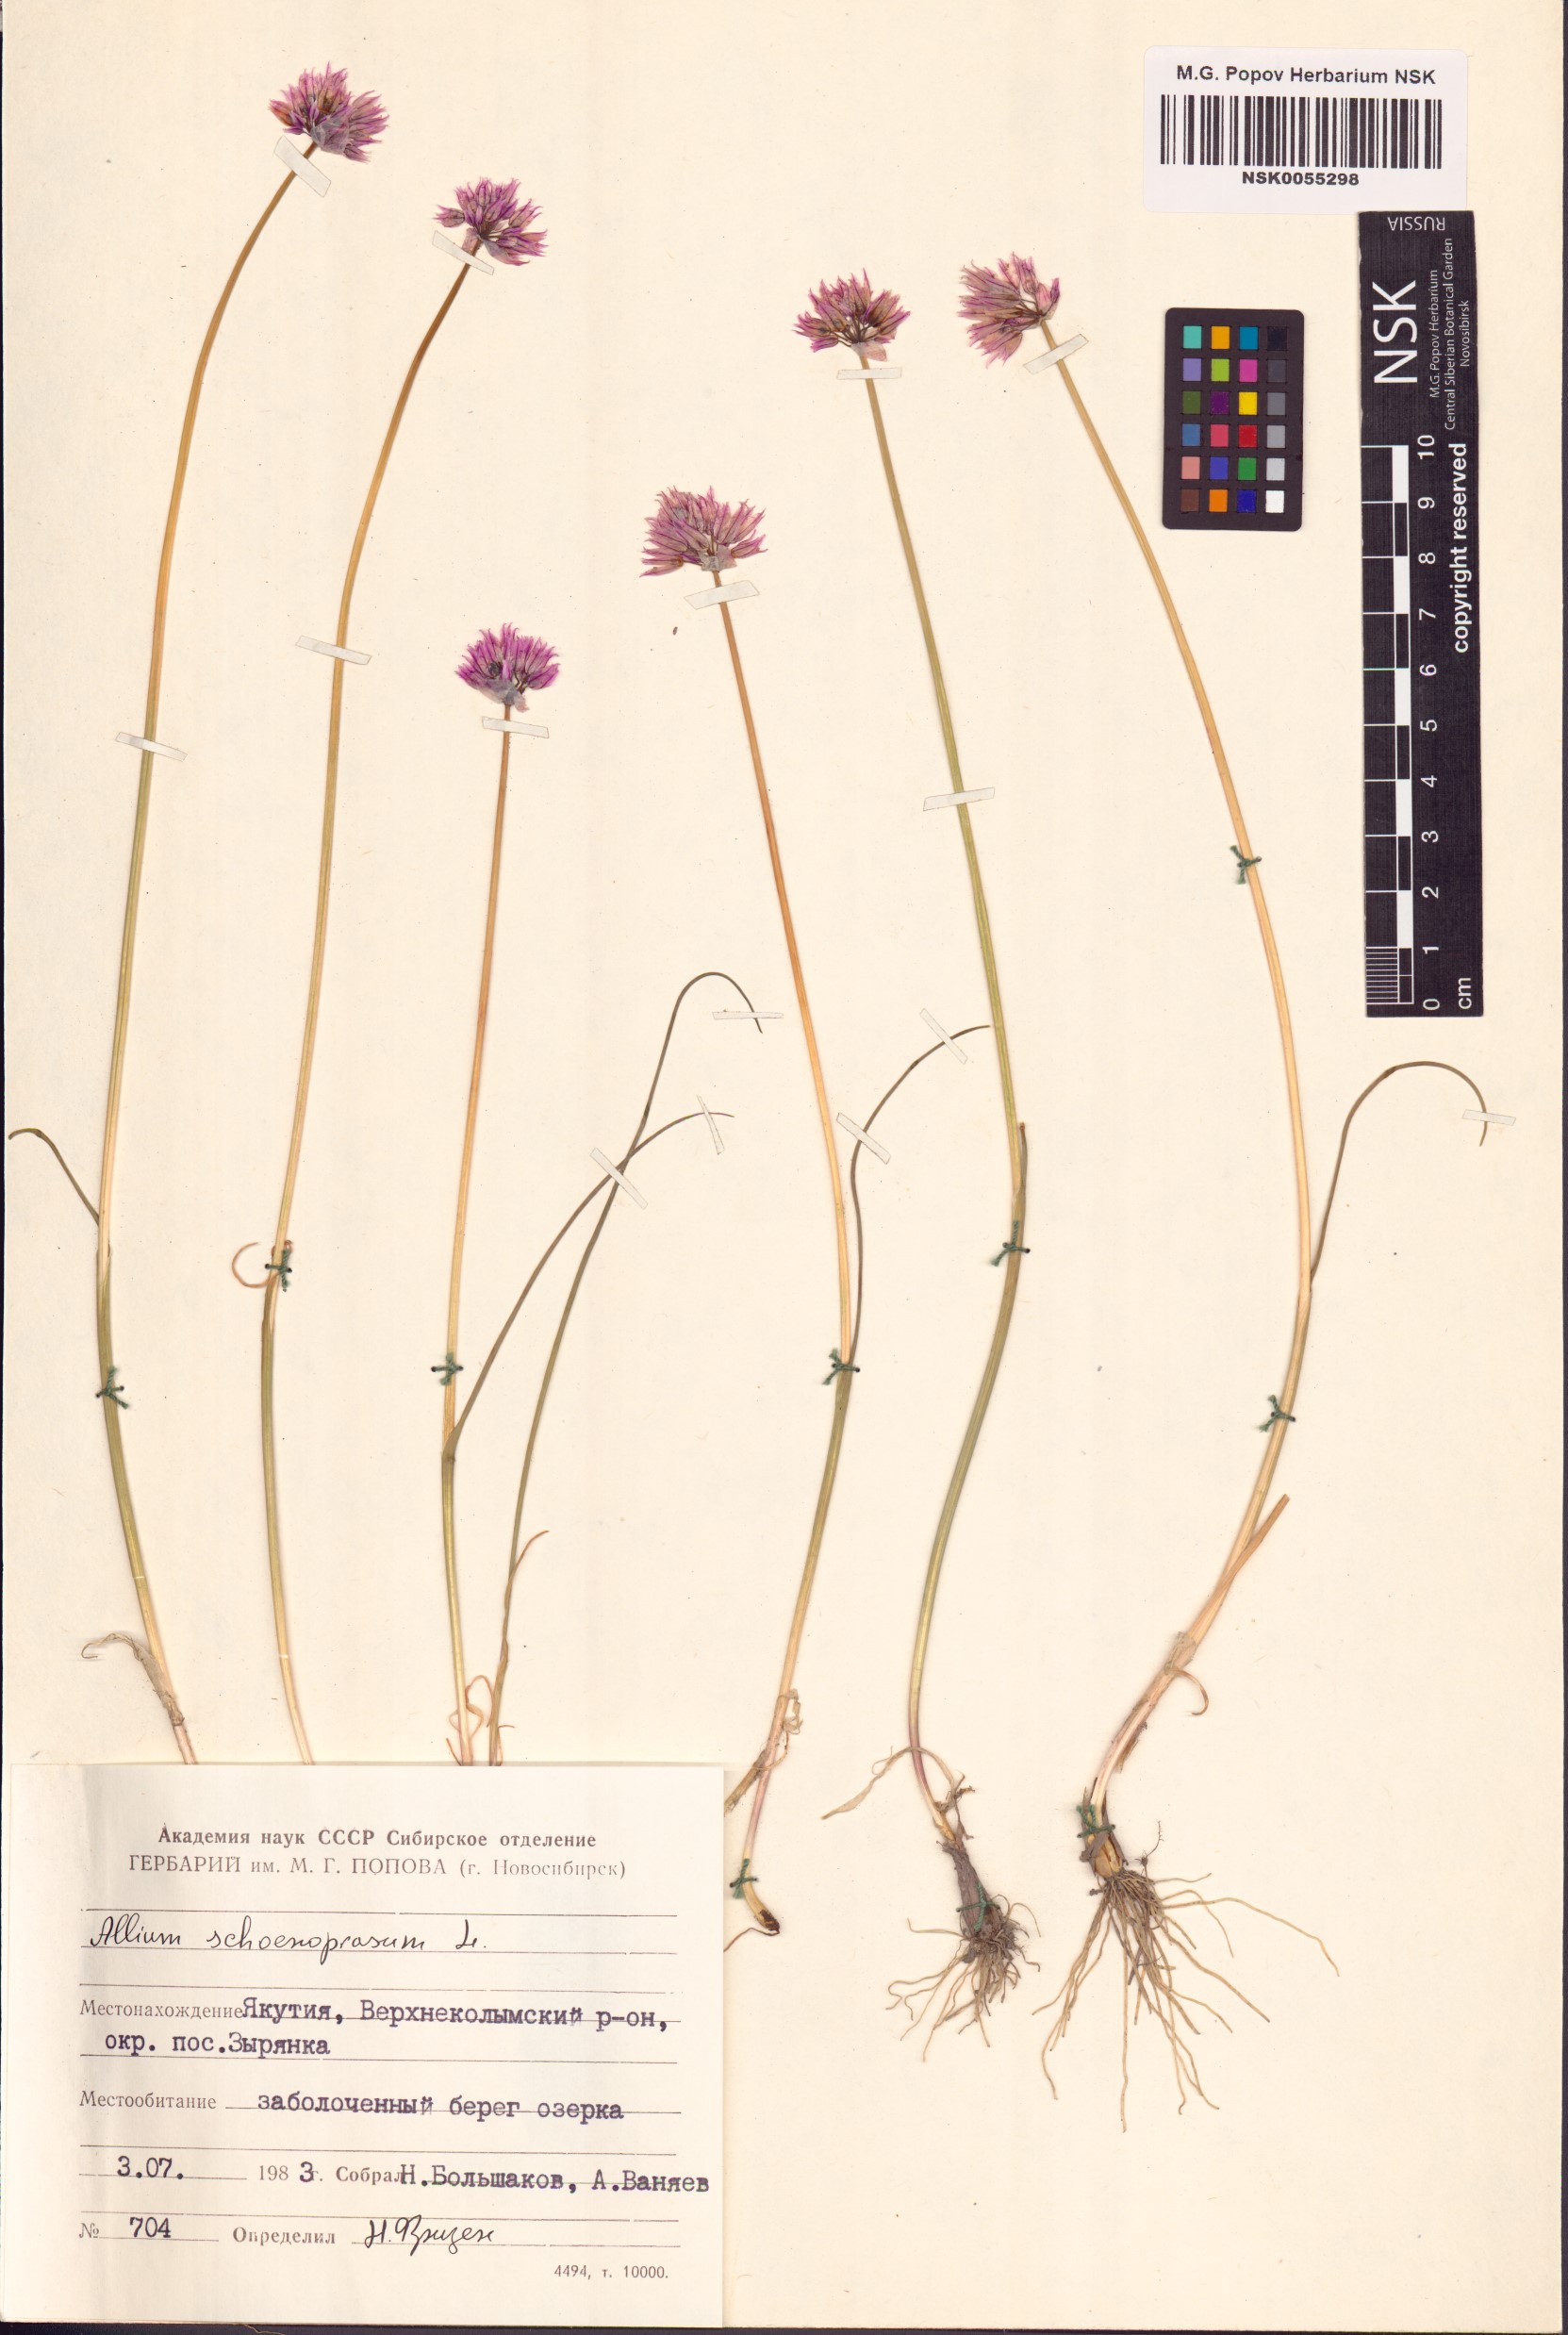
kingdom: Plantae
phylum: Tracheophyta
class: Liliopsida
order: Asparagales
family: Amaryllidaceae
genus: Allium
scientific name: Allium schoenoprasum
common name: Chives
